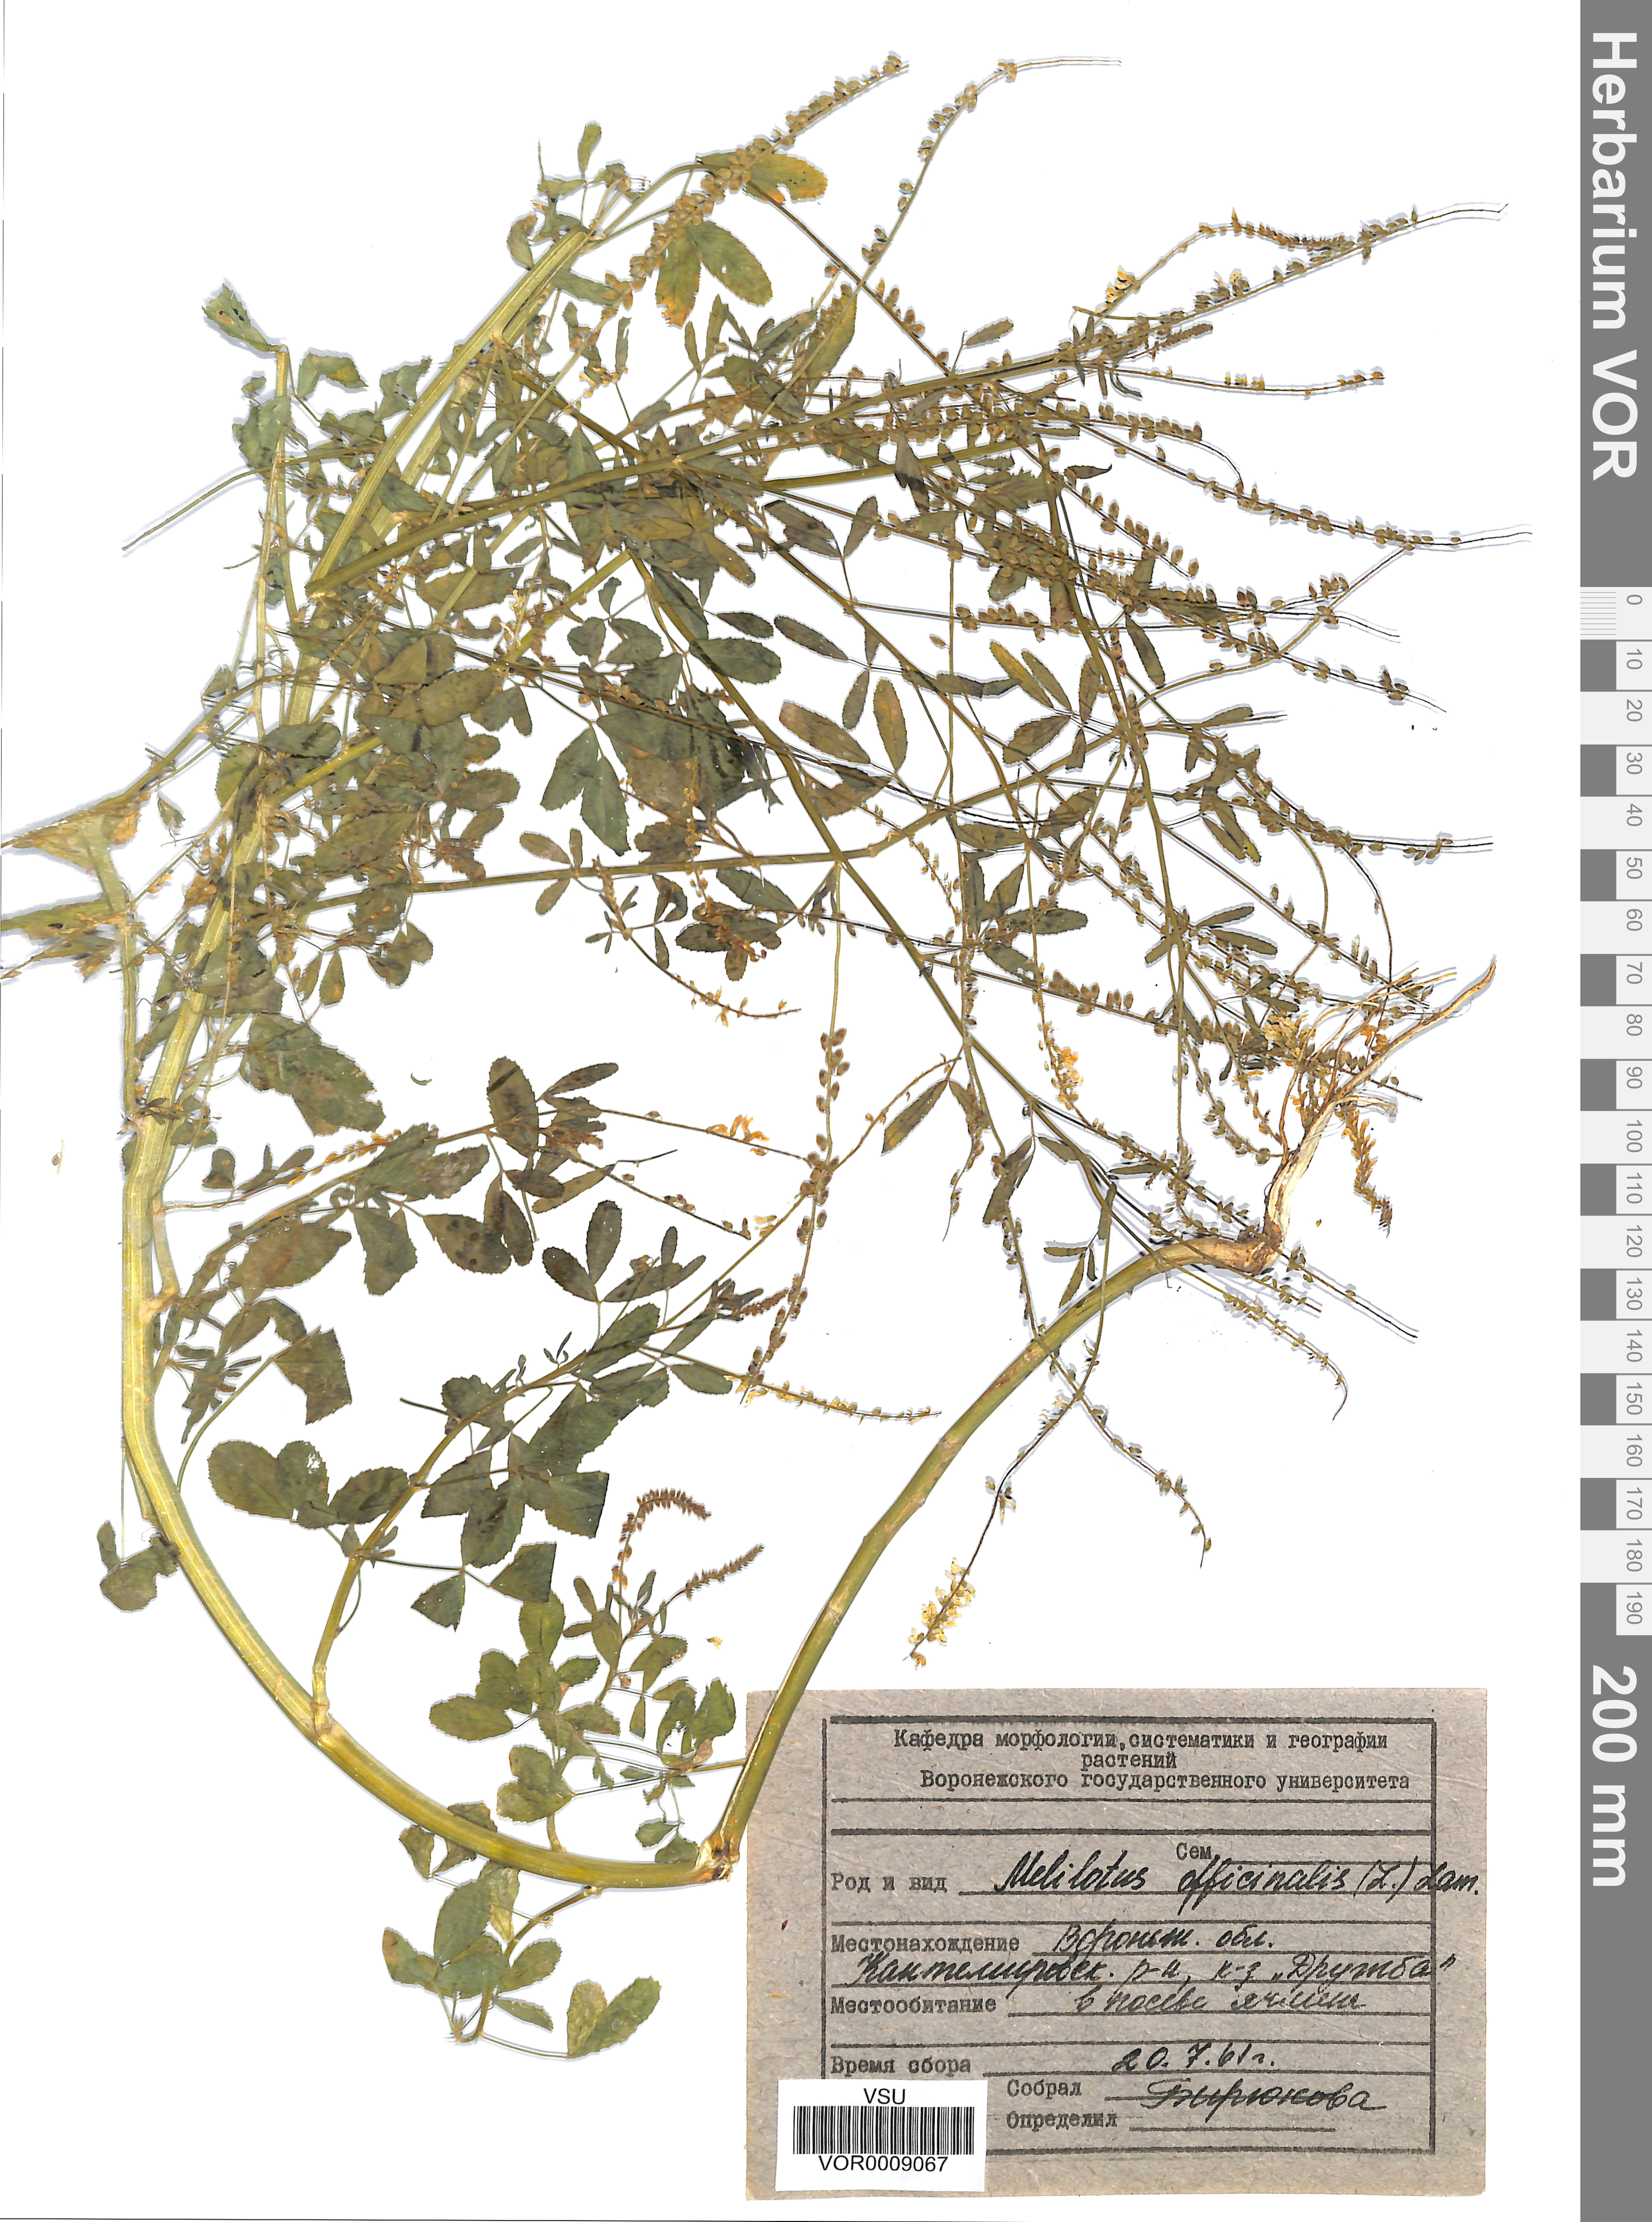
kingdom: Plantae
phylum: Tracheophyta
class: Magnoliopsida
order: Fabales
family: Fabaceae
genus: Melilotus
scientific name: Melilotus officinalis
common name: Sweetclover
